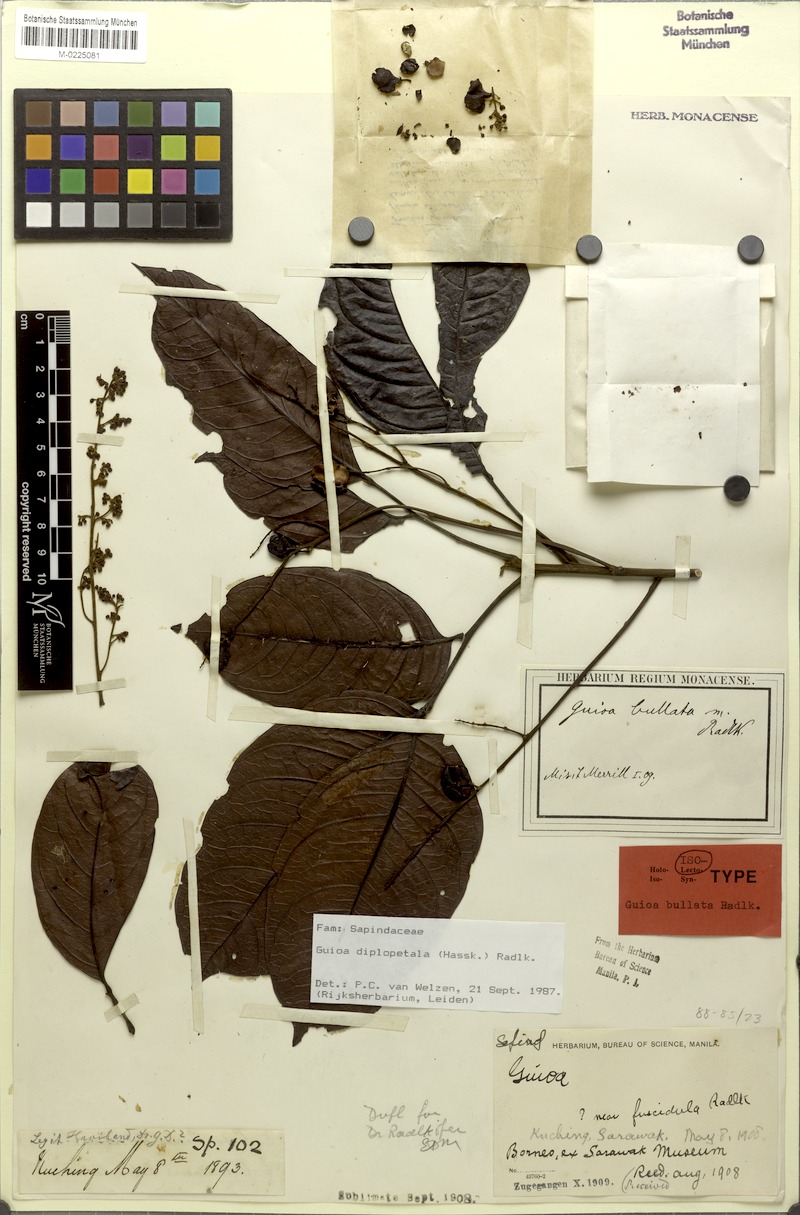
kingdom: Plantae
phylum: Tracheophyta
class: Magnoliopsida
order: Sapindales
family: Sapindaceae
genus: Guioa
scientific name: Guioa diplopetala
